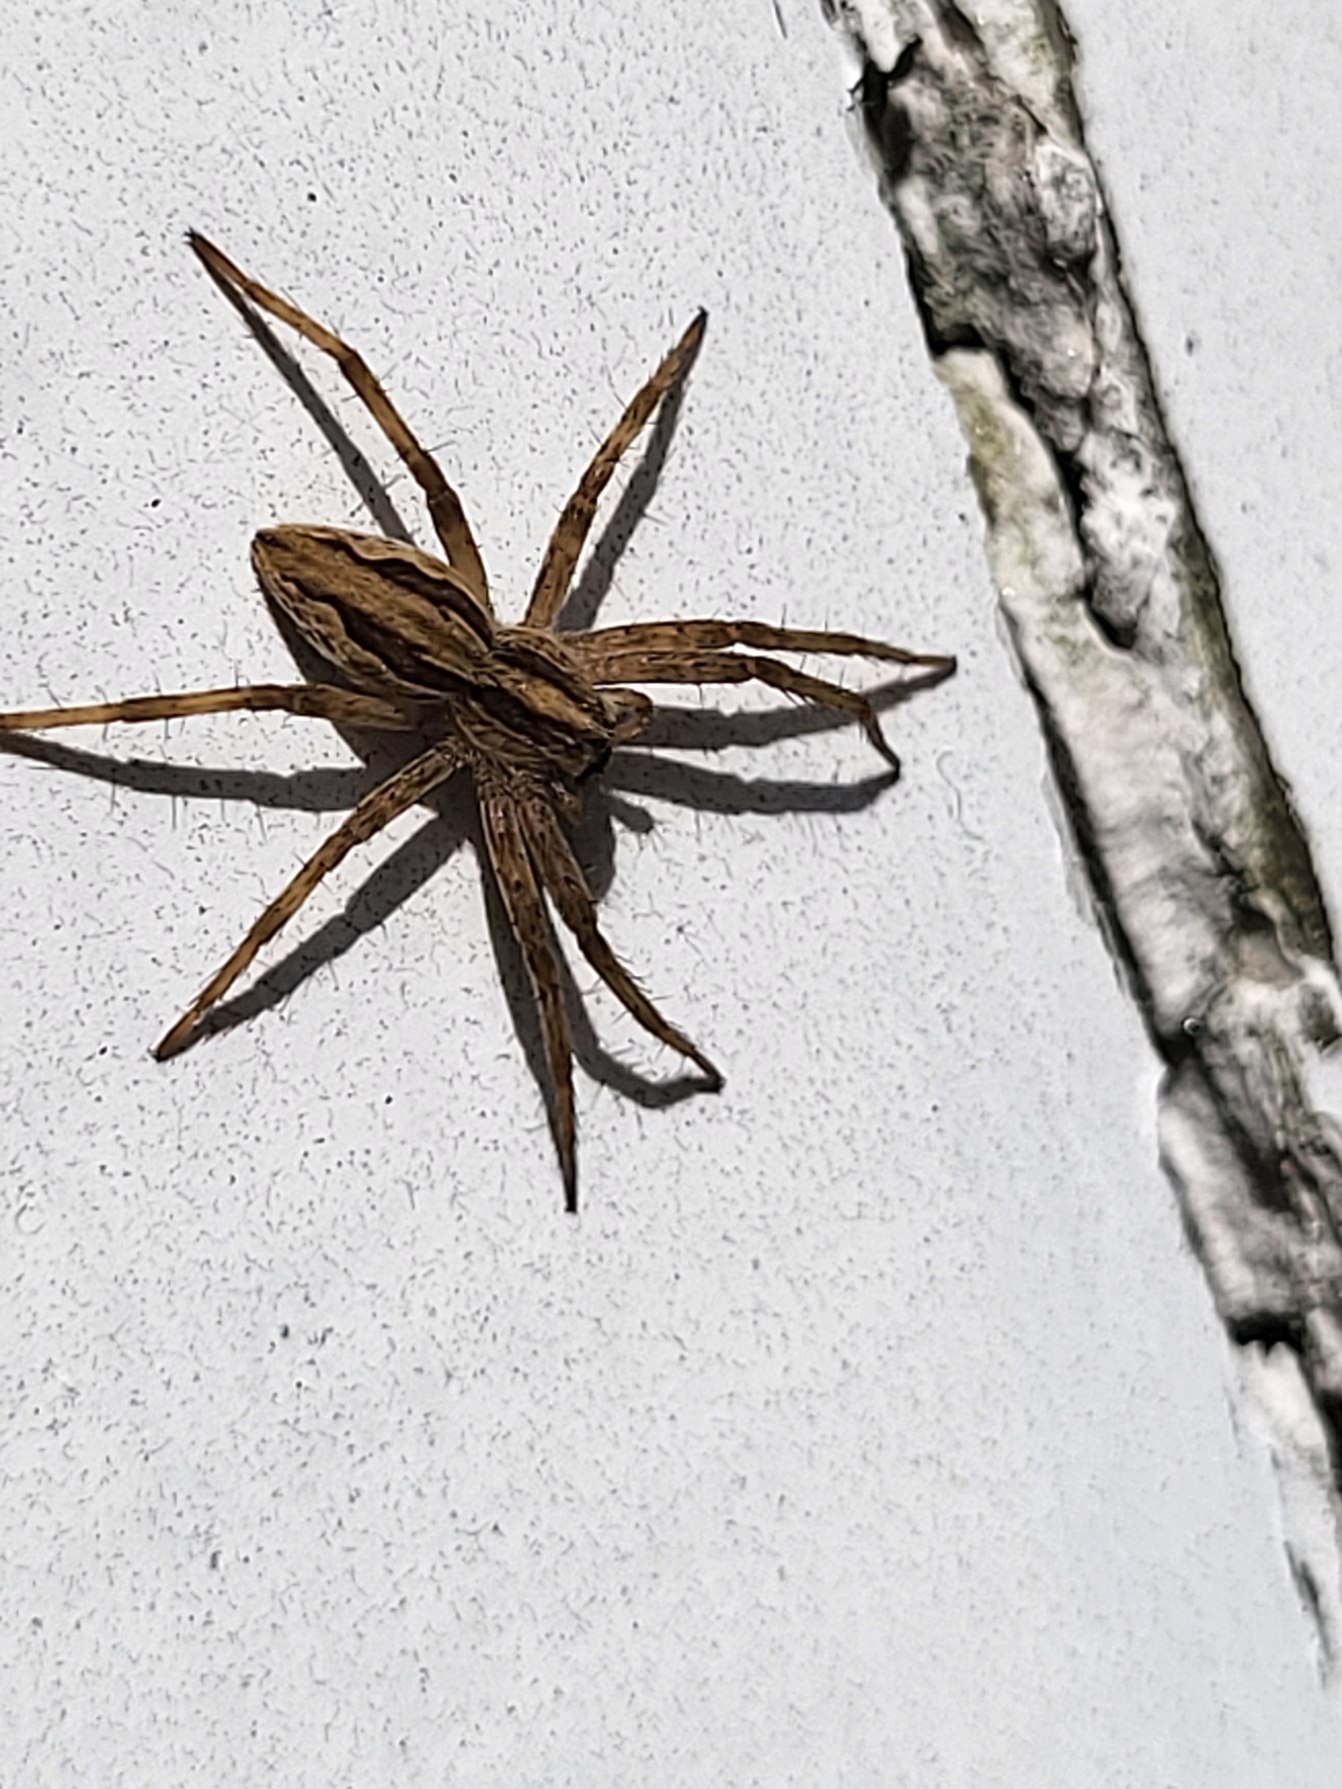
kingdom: Animalia
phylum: Arthropoda
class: Arachnida
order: Araneae
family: Pisauridae
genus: Pisaura
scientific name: Pisaura mirabilis
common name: Almindelig rovedderkop
